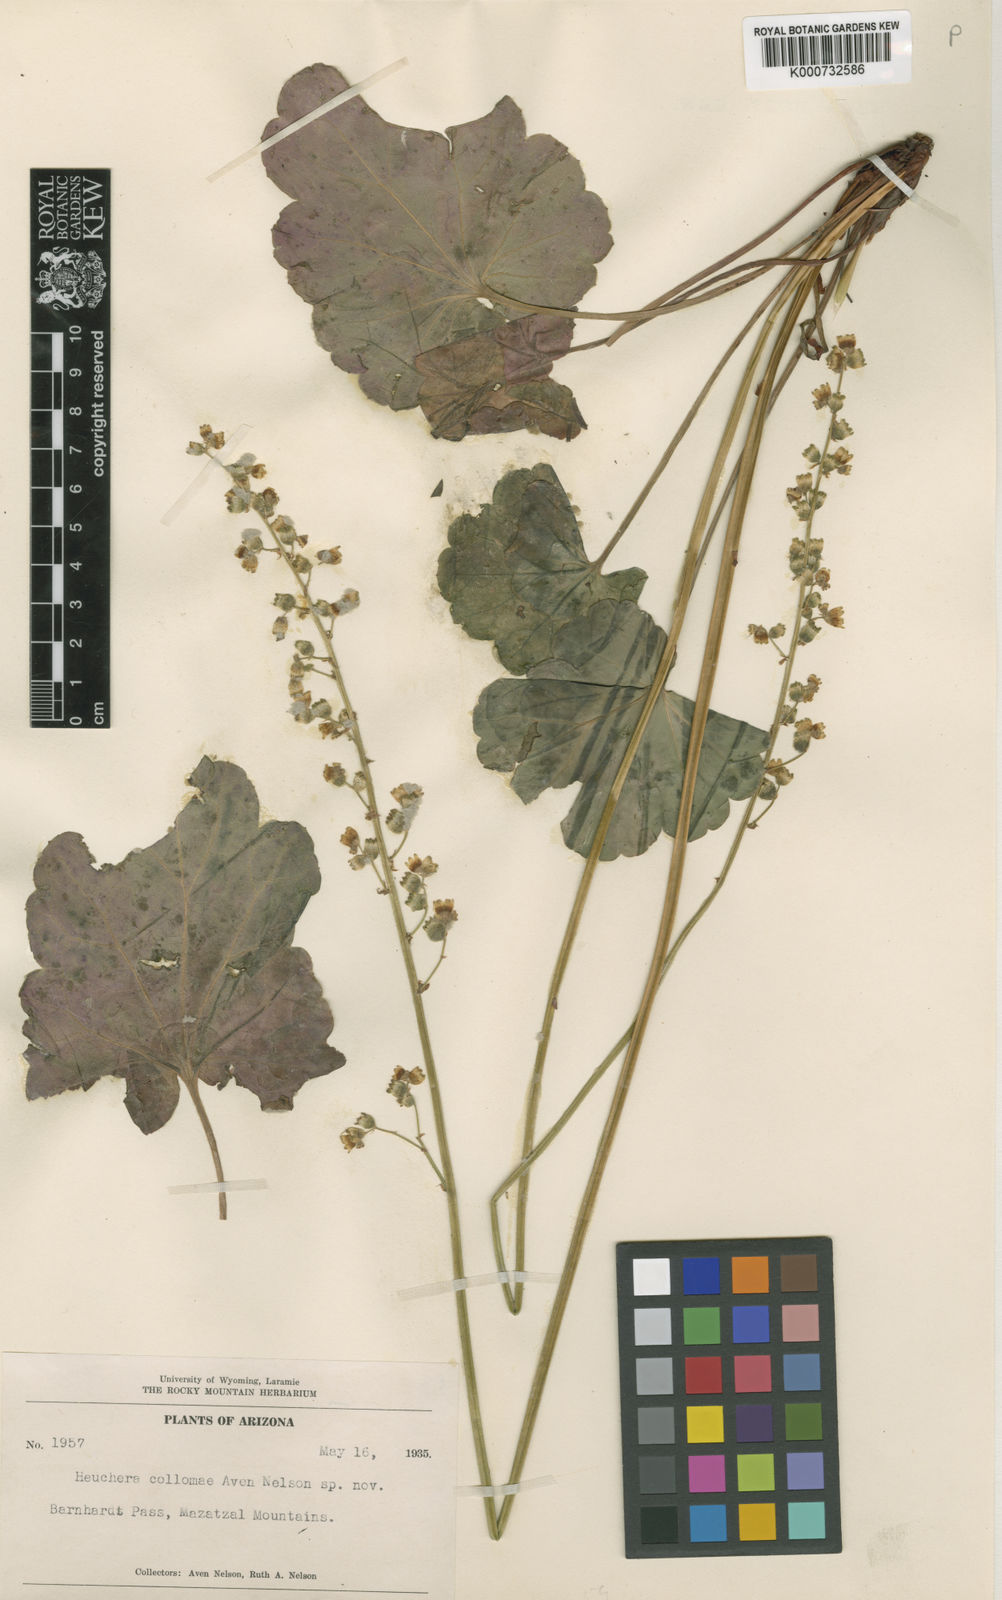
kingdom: Plantae
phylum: Tracheophyta
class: Magnoliopsida
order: Saxifragales
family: Saxifragaceae
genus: Heuchera
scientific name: Heuchera
